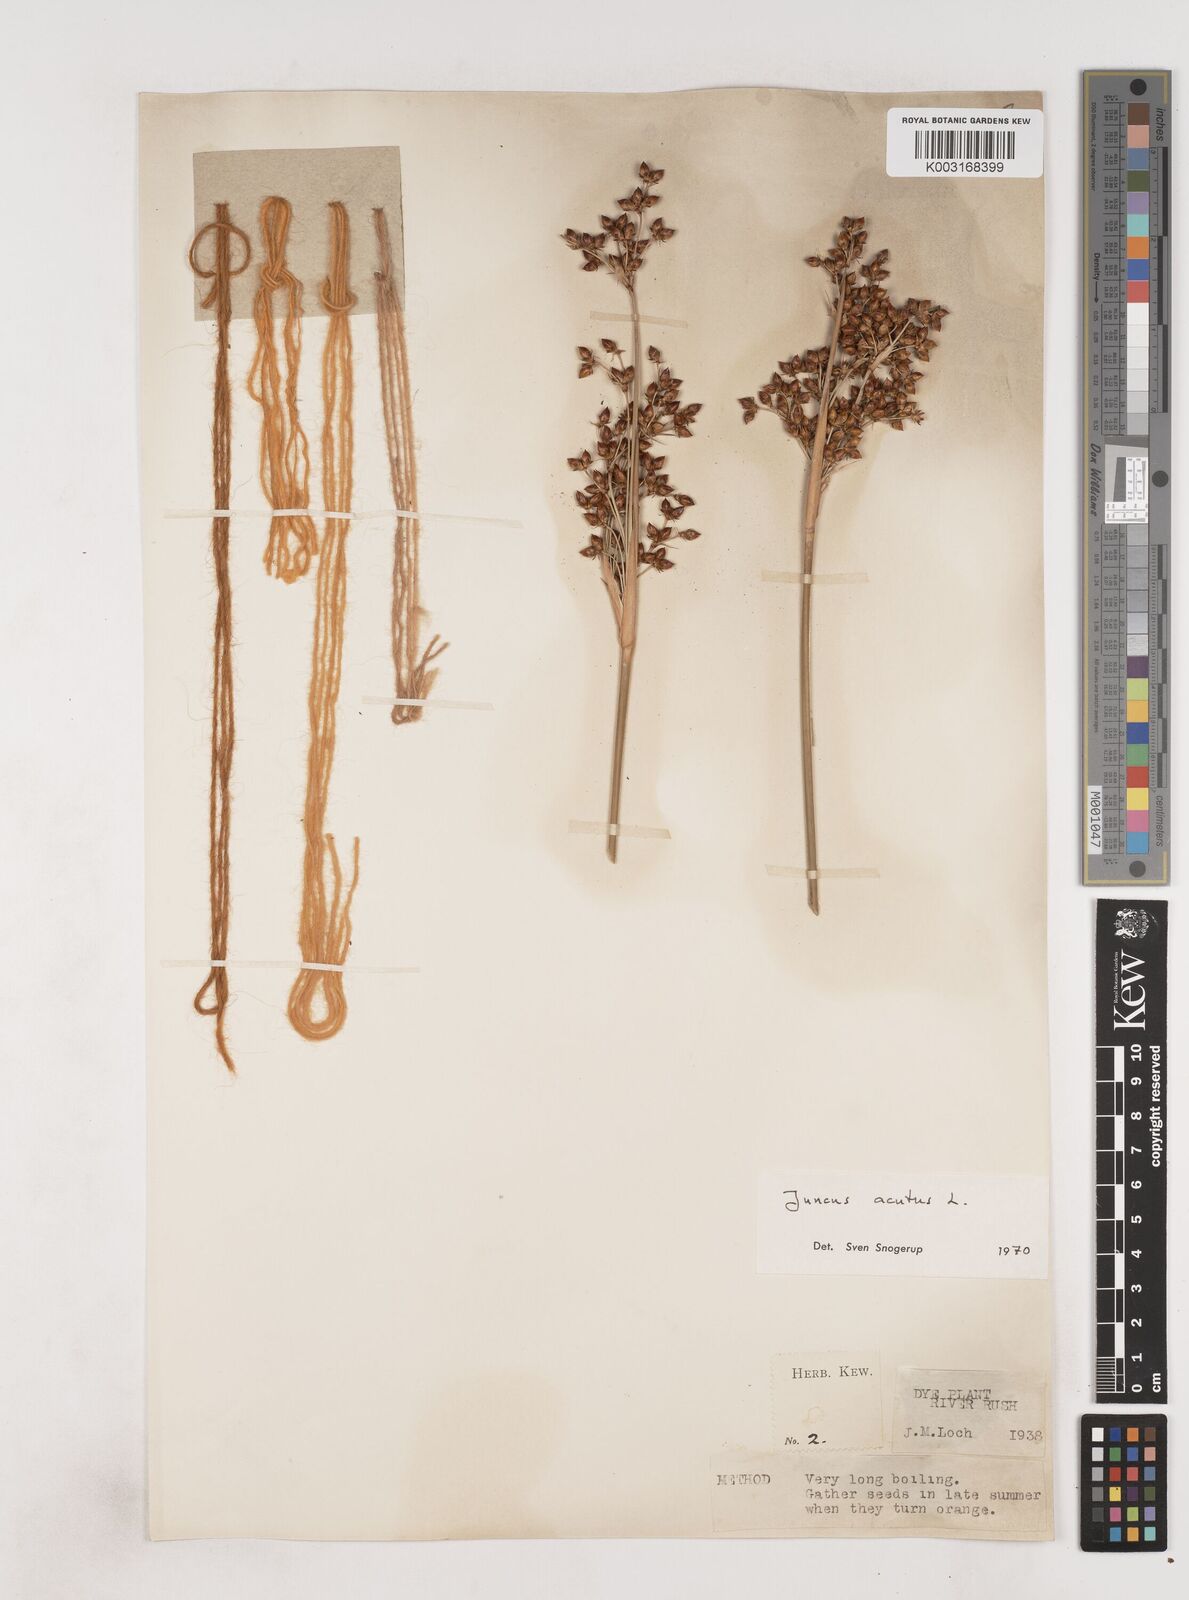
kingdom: Plantae
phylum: Tracheophyta
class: Liliopsida
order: Poales
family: Juncaceae
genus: Juncus
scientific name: Juncus acutus
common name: Sharp rush
